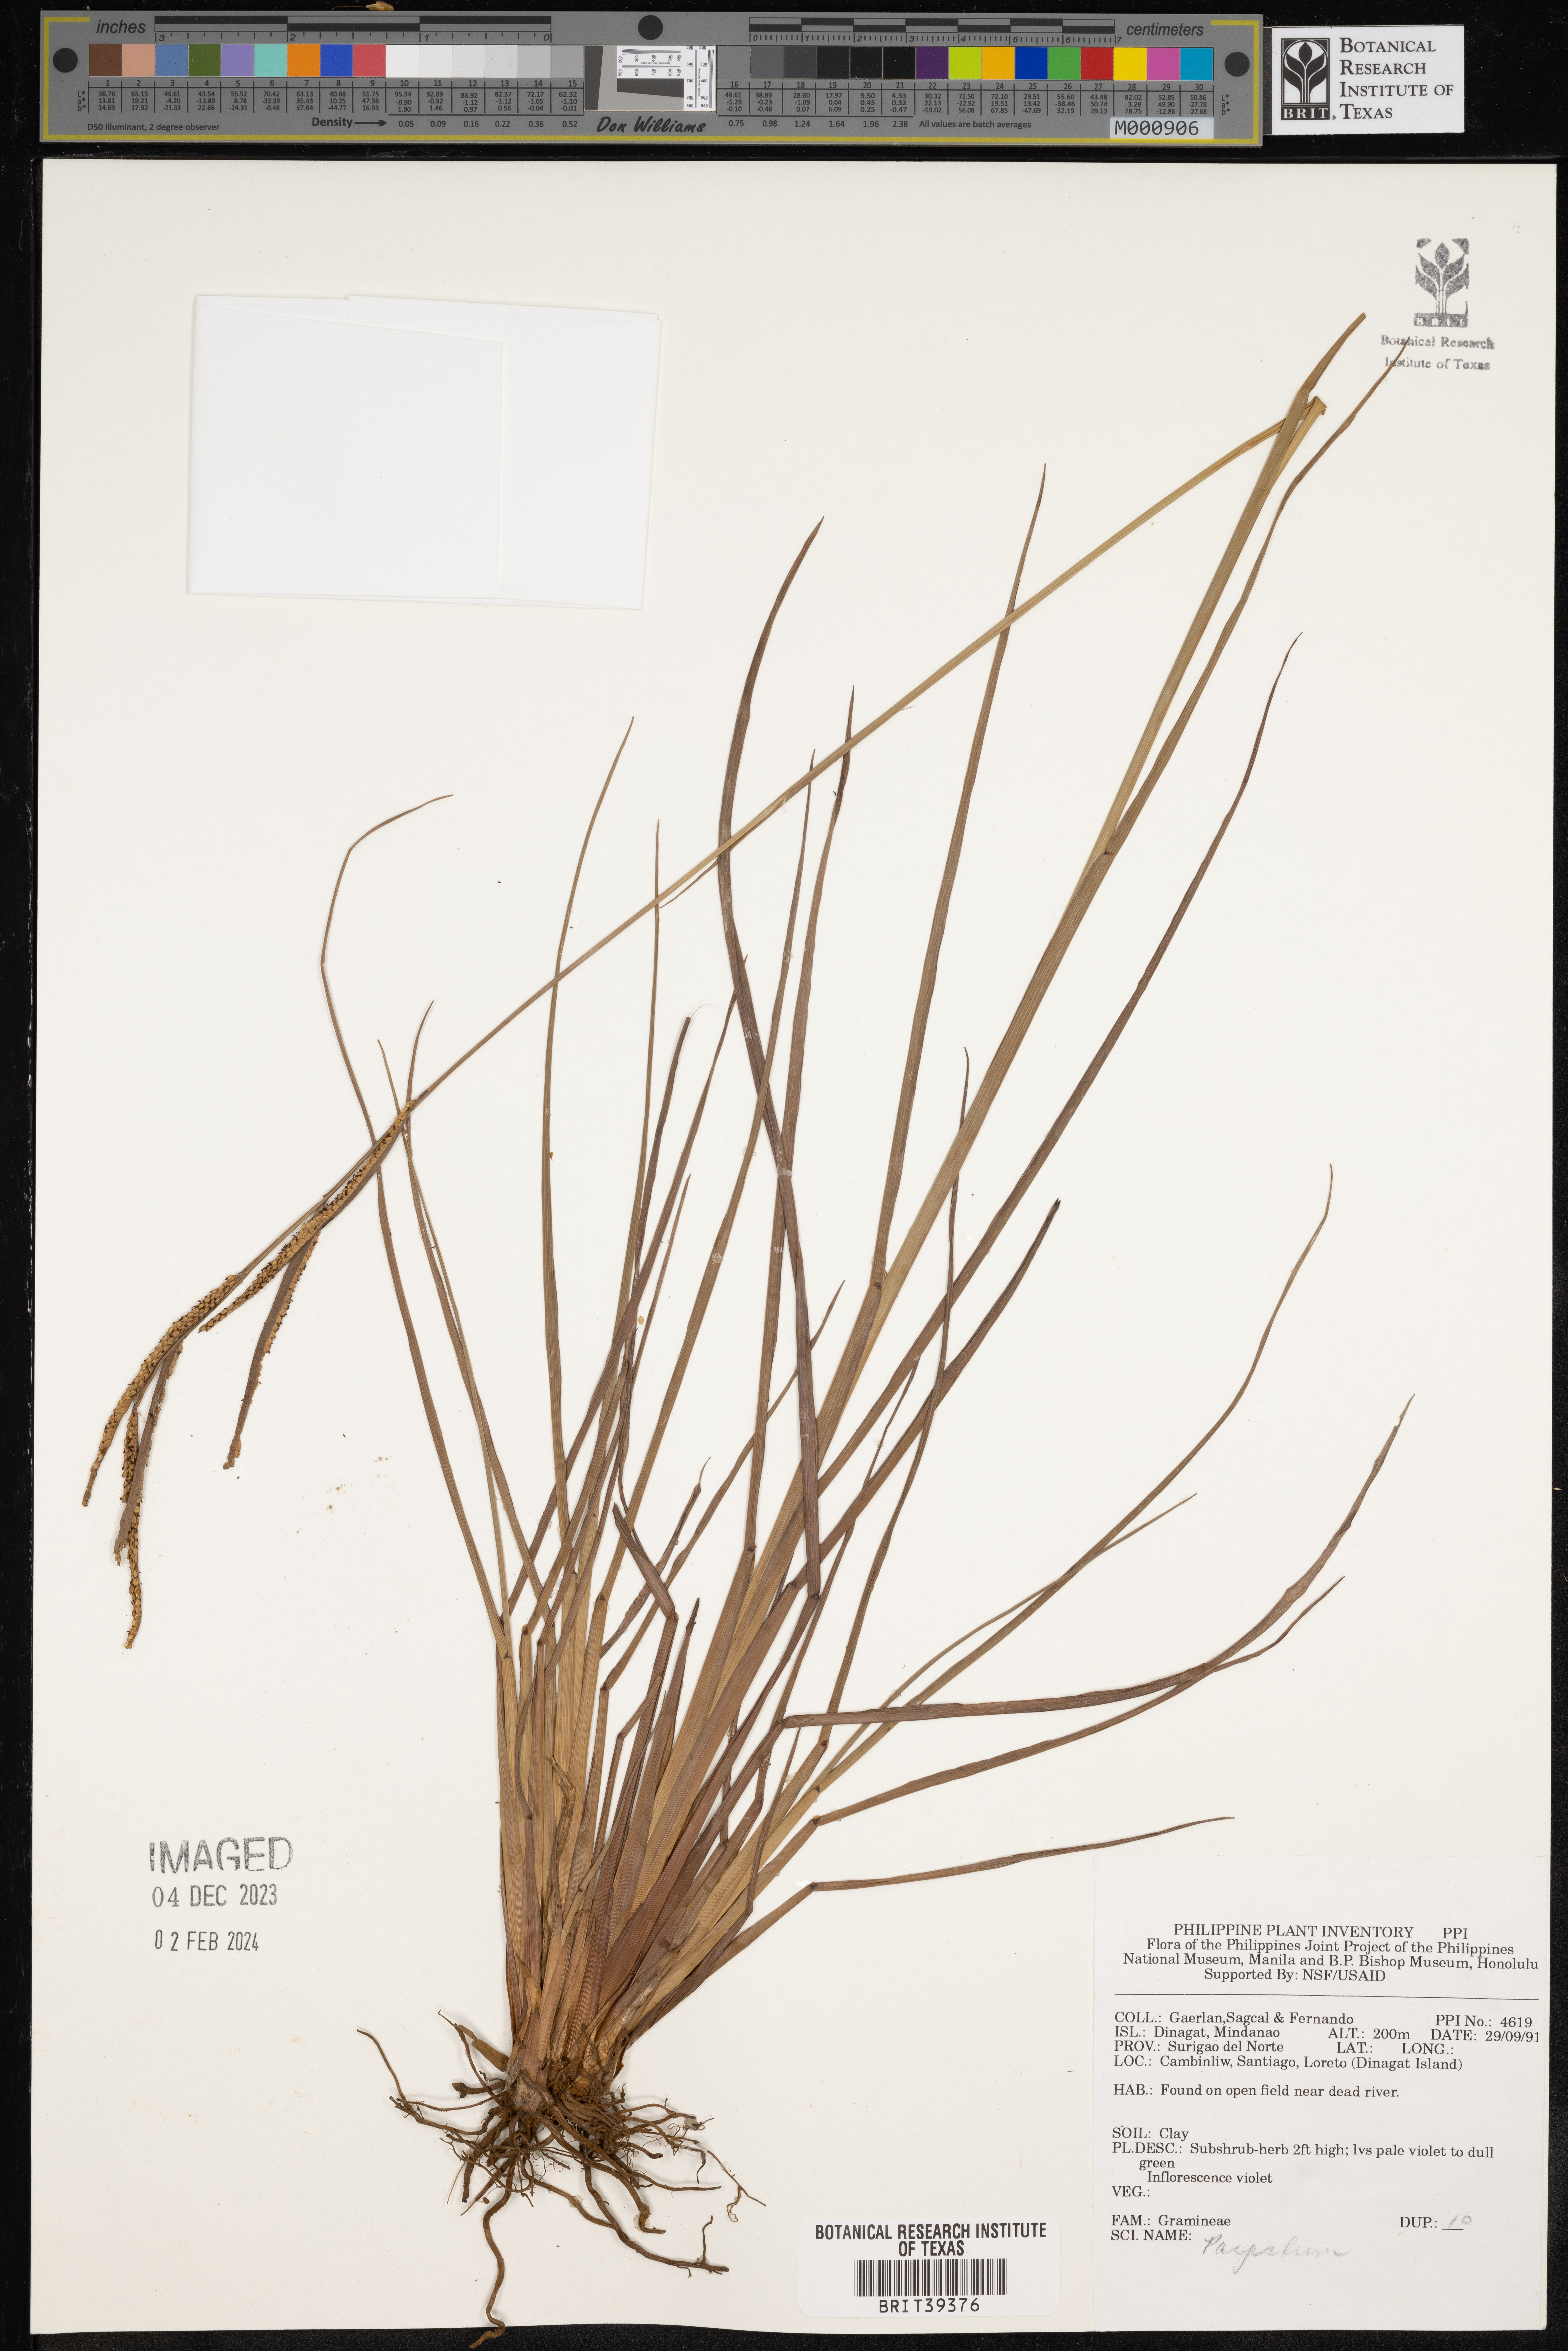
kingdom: Plantae
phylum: Tracheophyta
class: Liliopsida
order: Poales
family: Poaceae
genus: Paspalum
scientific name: Paspalum
